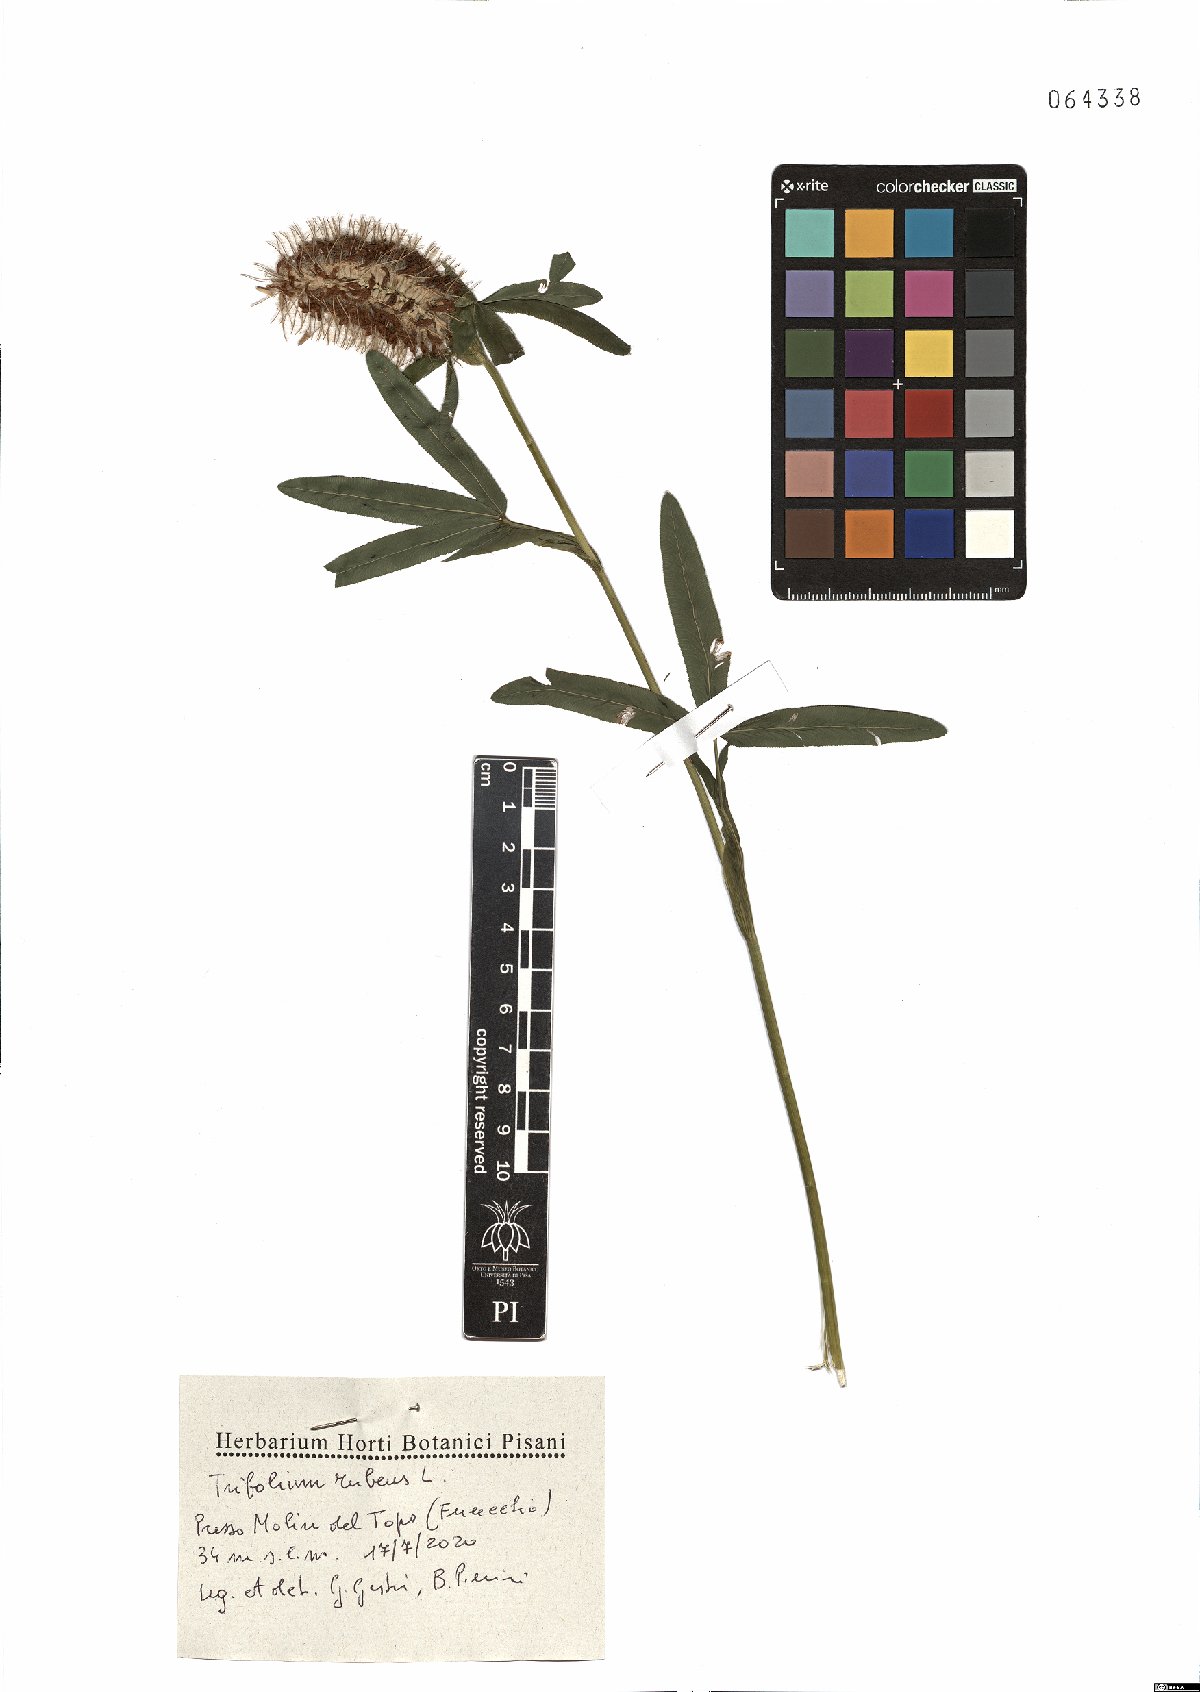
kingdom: Plantae
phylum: Tracheophyta
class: Magnoliopsida
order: Fabales
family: Fabaceae
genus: Trifolium
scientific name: Trifolium rubens
